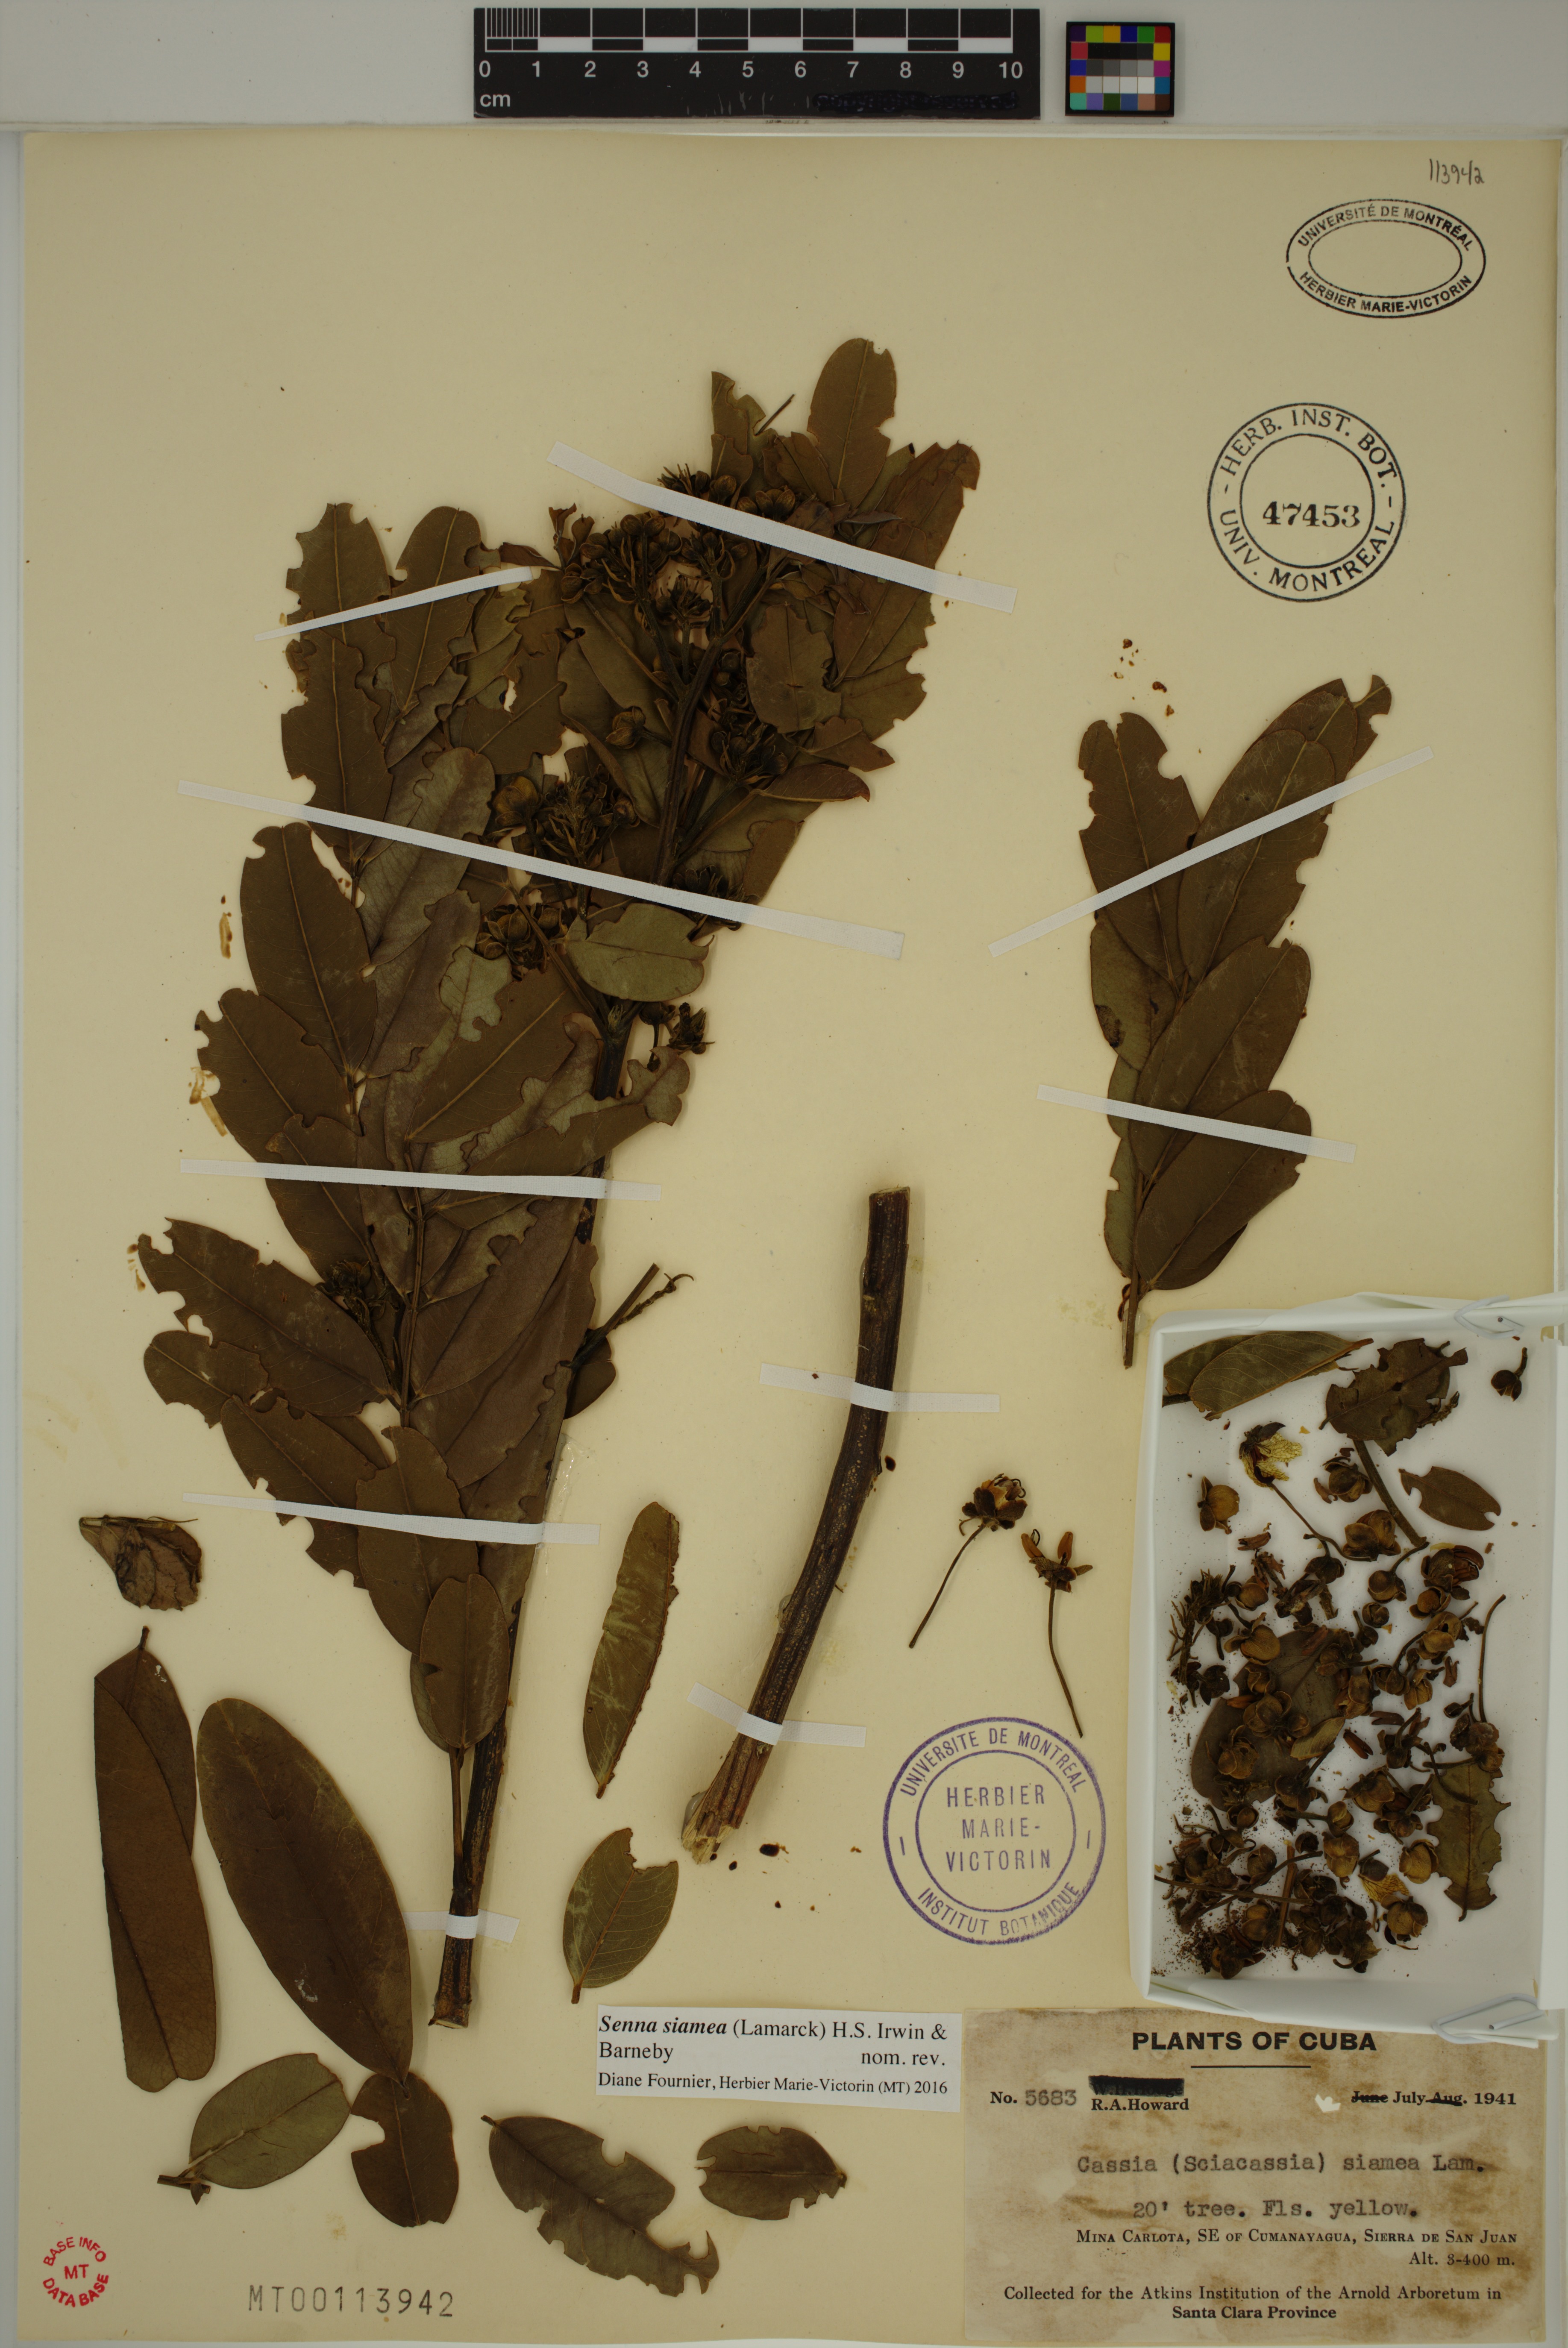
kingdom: Plantae
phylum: Tracheophyta
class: Magnoliopsida
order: Fabales
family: Fabaceae
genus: Senna
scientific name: Senna siamea
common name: Siamese cassia
